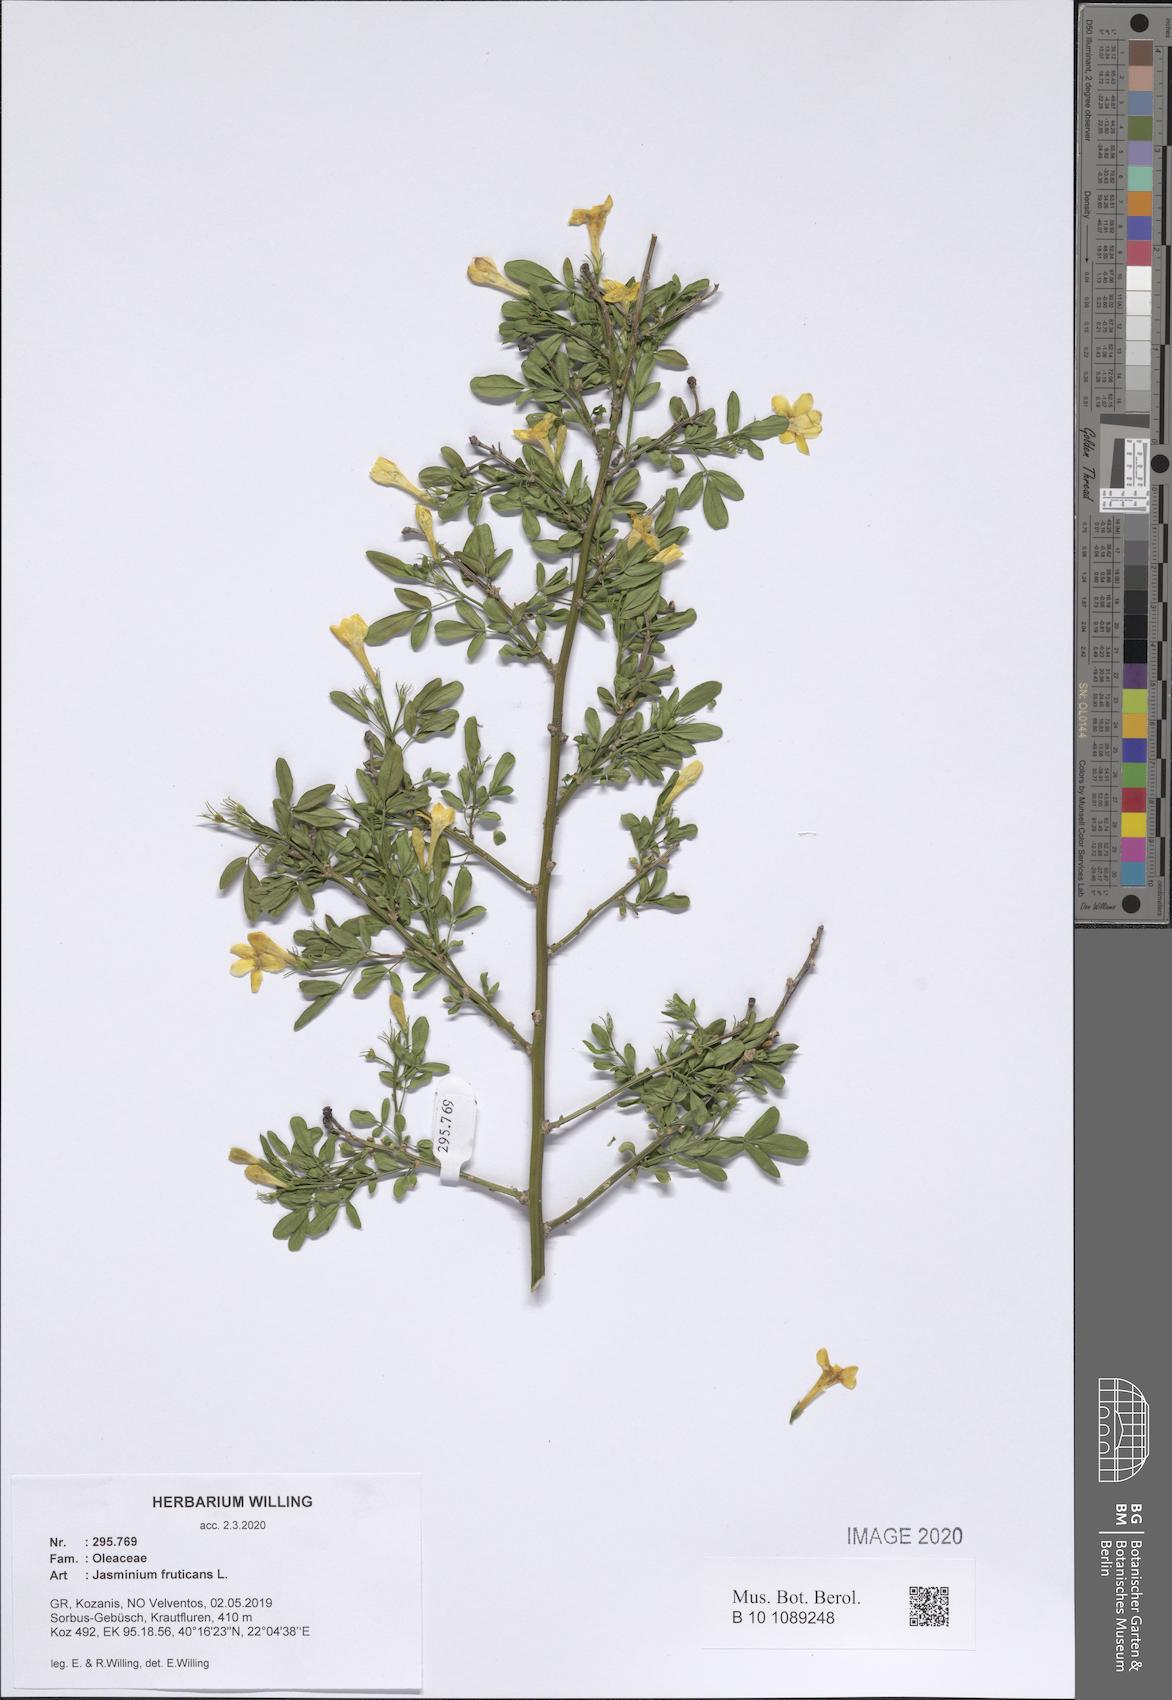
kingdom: Plantae
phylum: Tracheophyta
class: Magnoliopsida
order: Lamiales
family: Oleaceae
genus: Chrysojasminum
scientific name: Chrysojasminum fruticans
